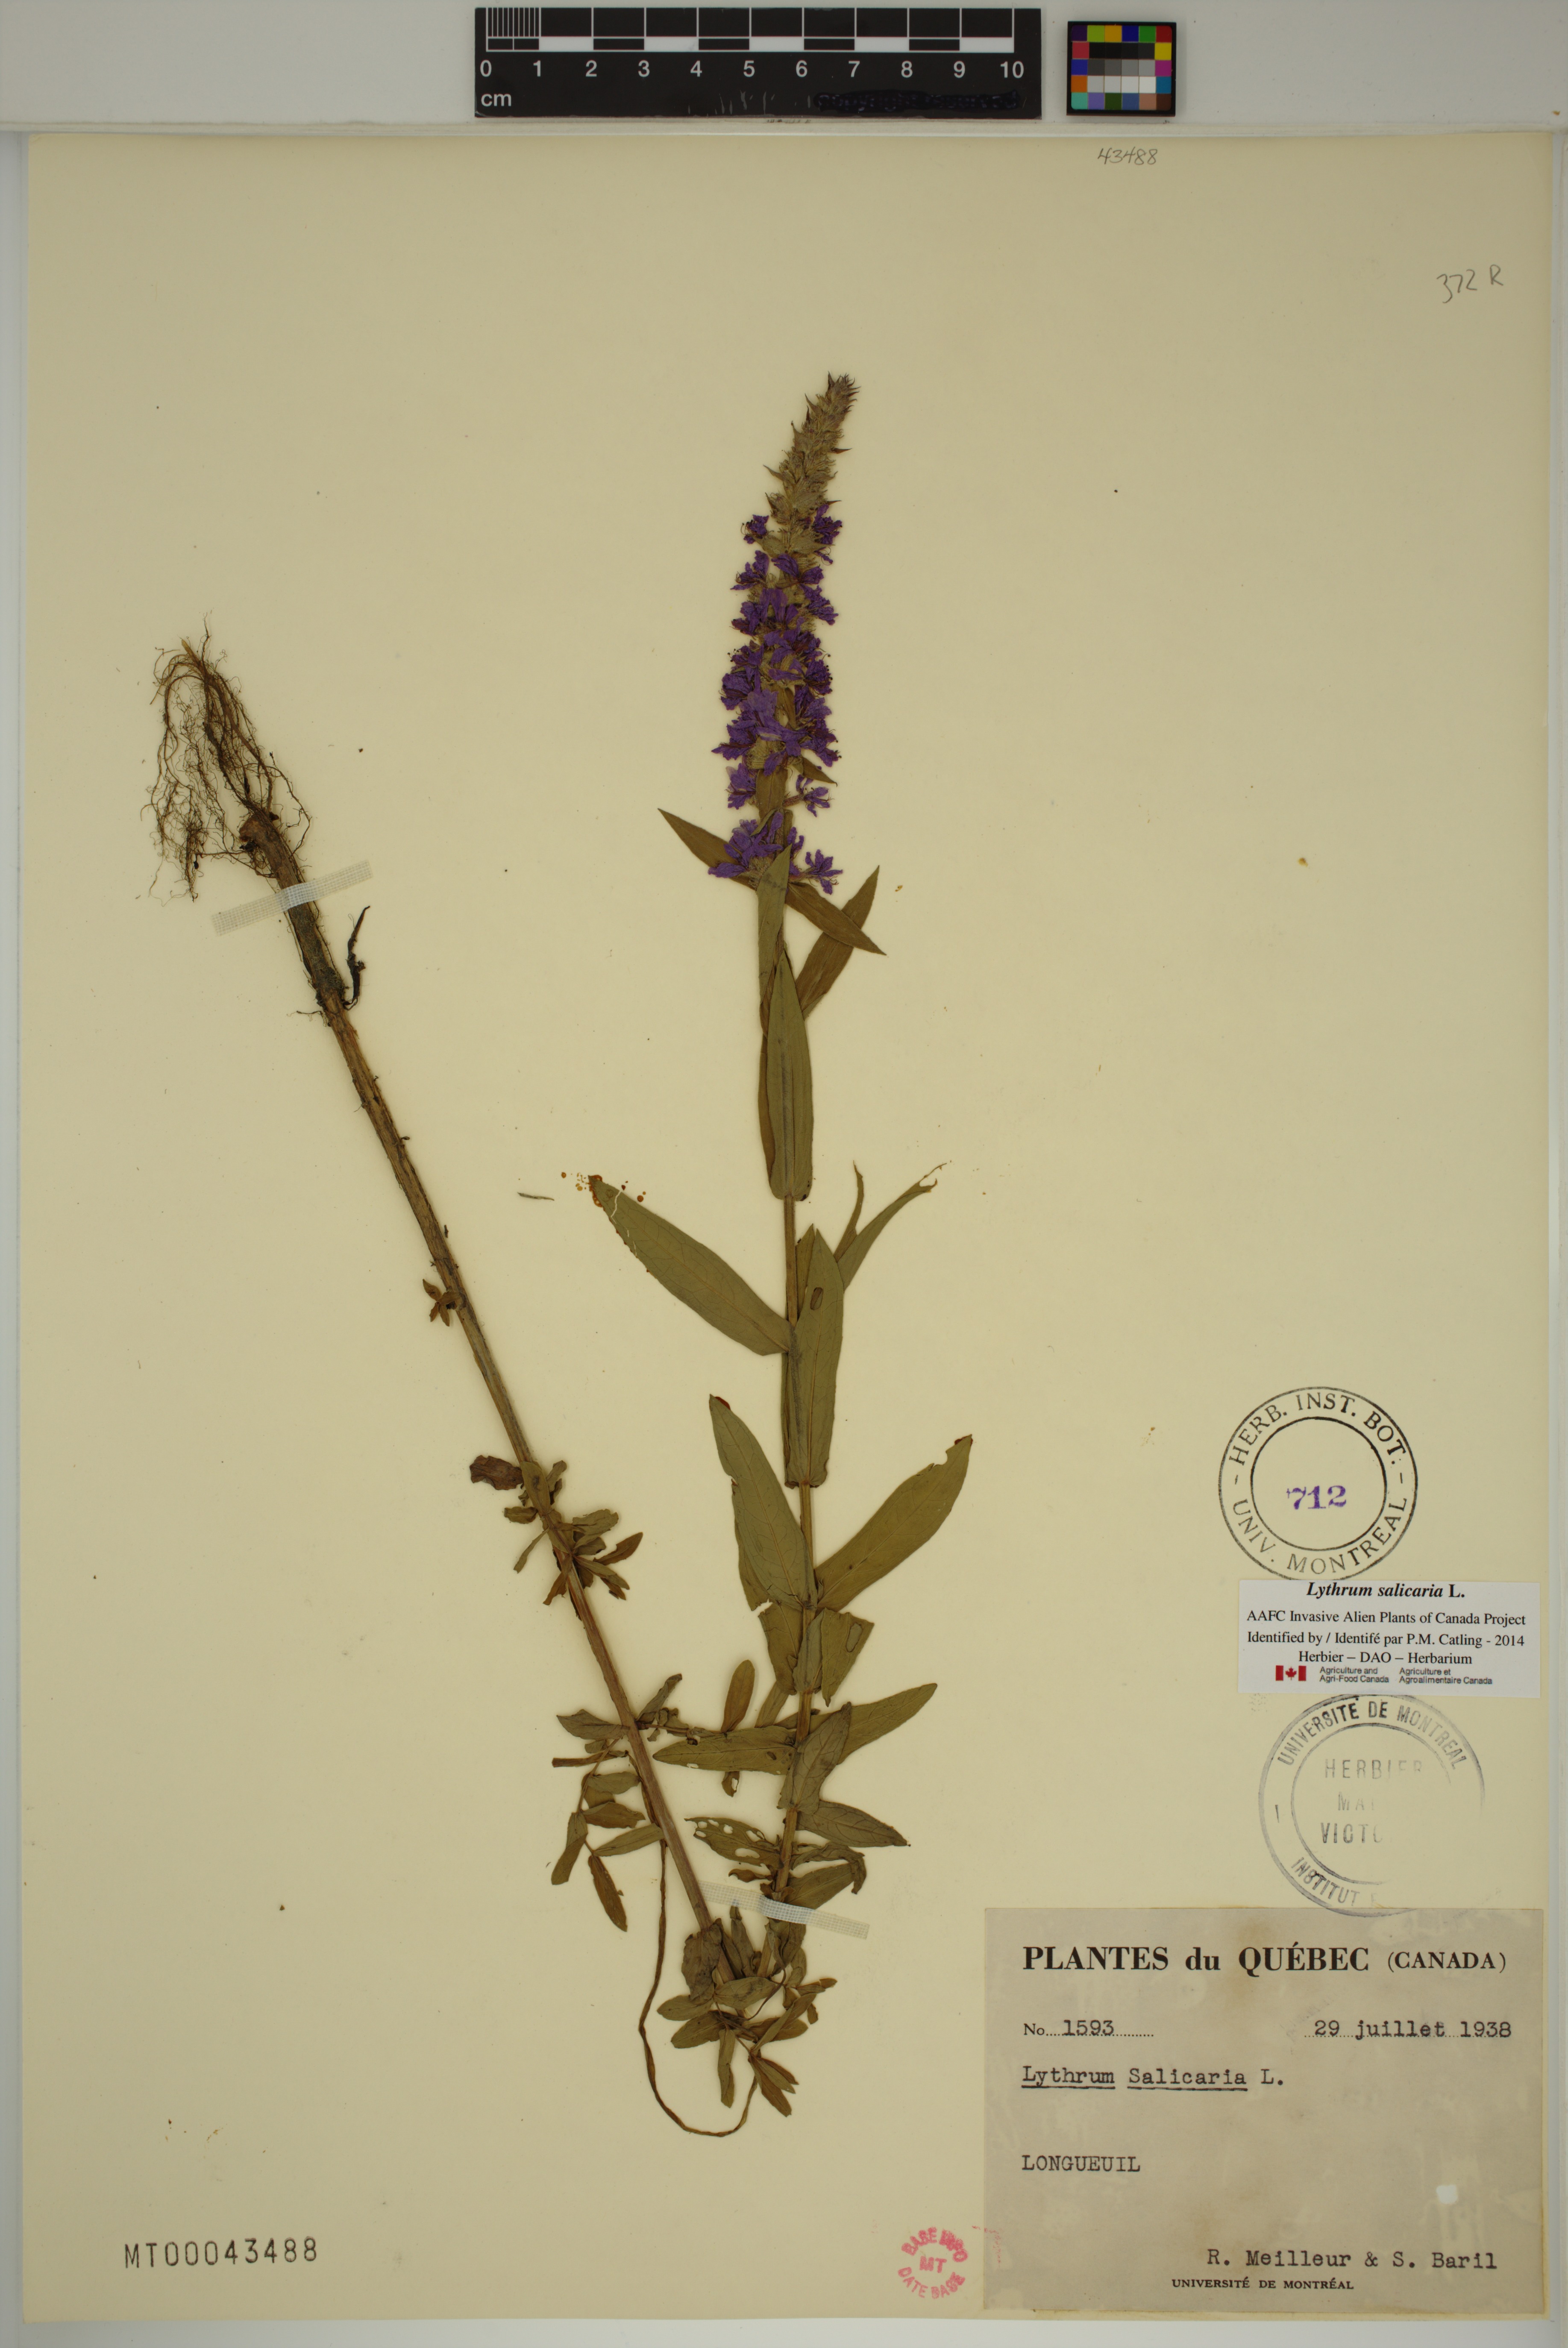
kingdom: Plantae
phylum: Tracheophyta
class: Magnoliopsida
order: Myrtales
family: Lythraceae
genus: Lythrum
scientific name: Lythrum salicaria
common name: Purple loosestrife
